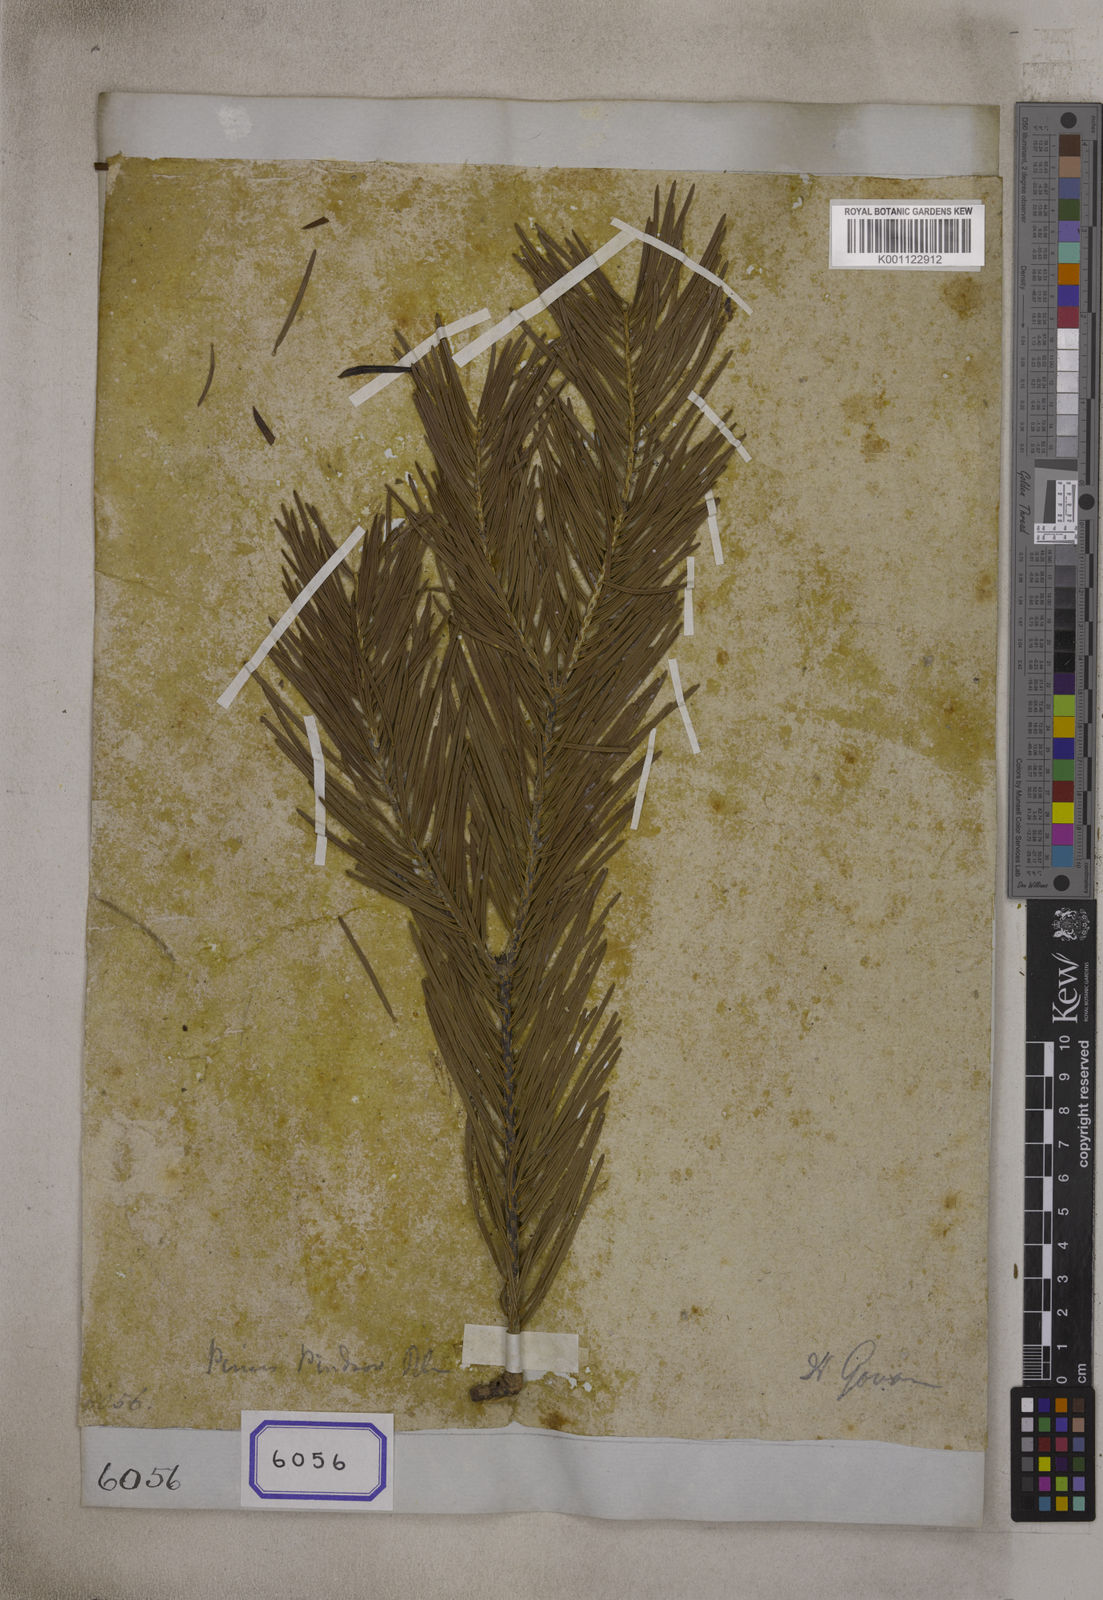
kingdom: Plantae
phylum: Tracheophyta
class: Pinopsida
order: Pinales
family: Pinaceae
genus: Abies
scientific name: Abies pindrow
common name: Pindrow fir
